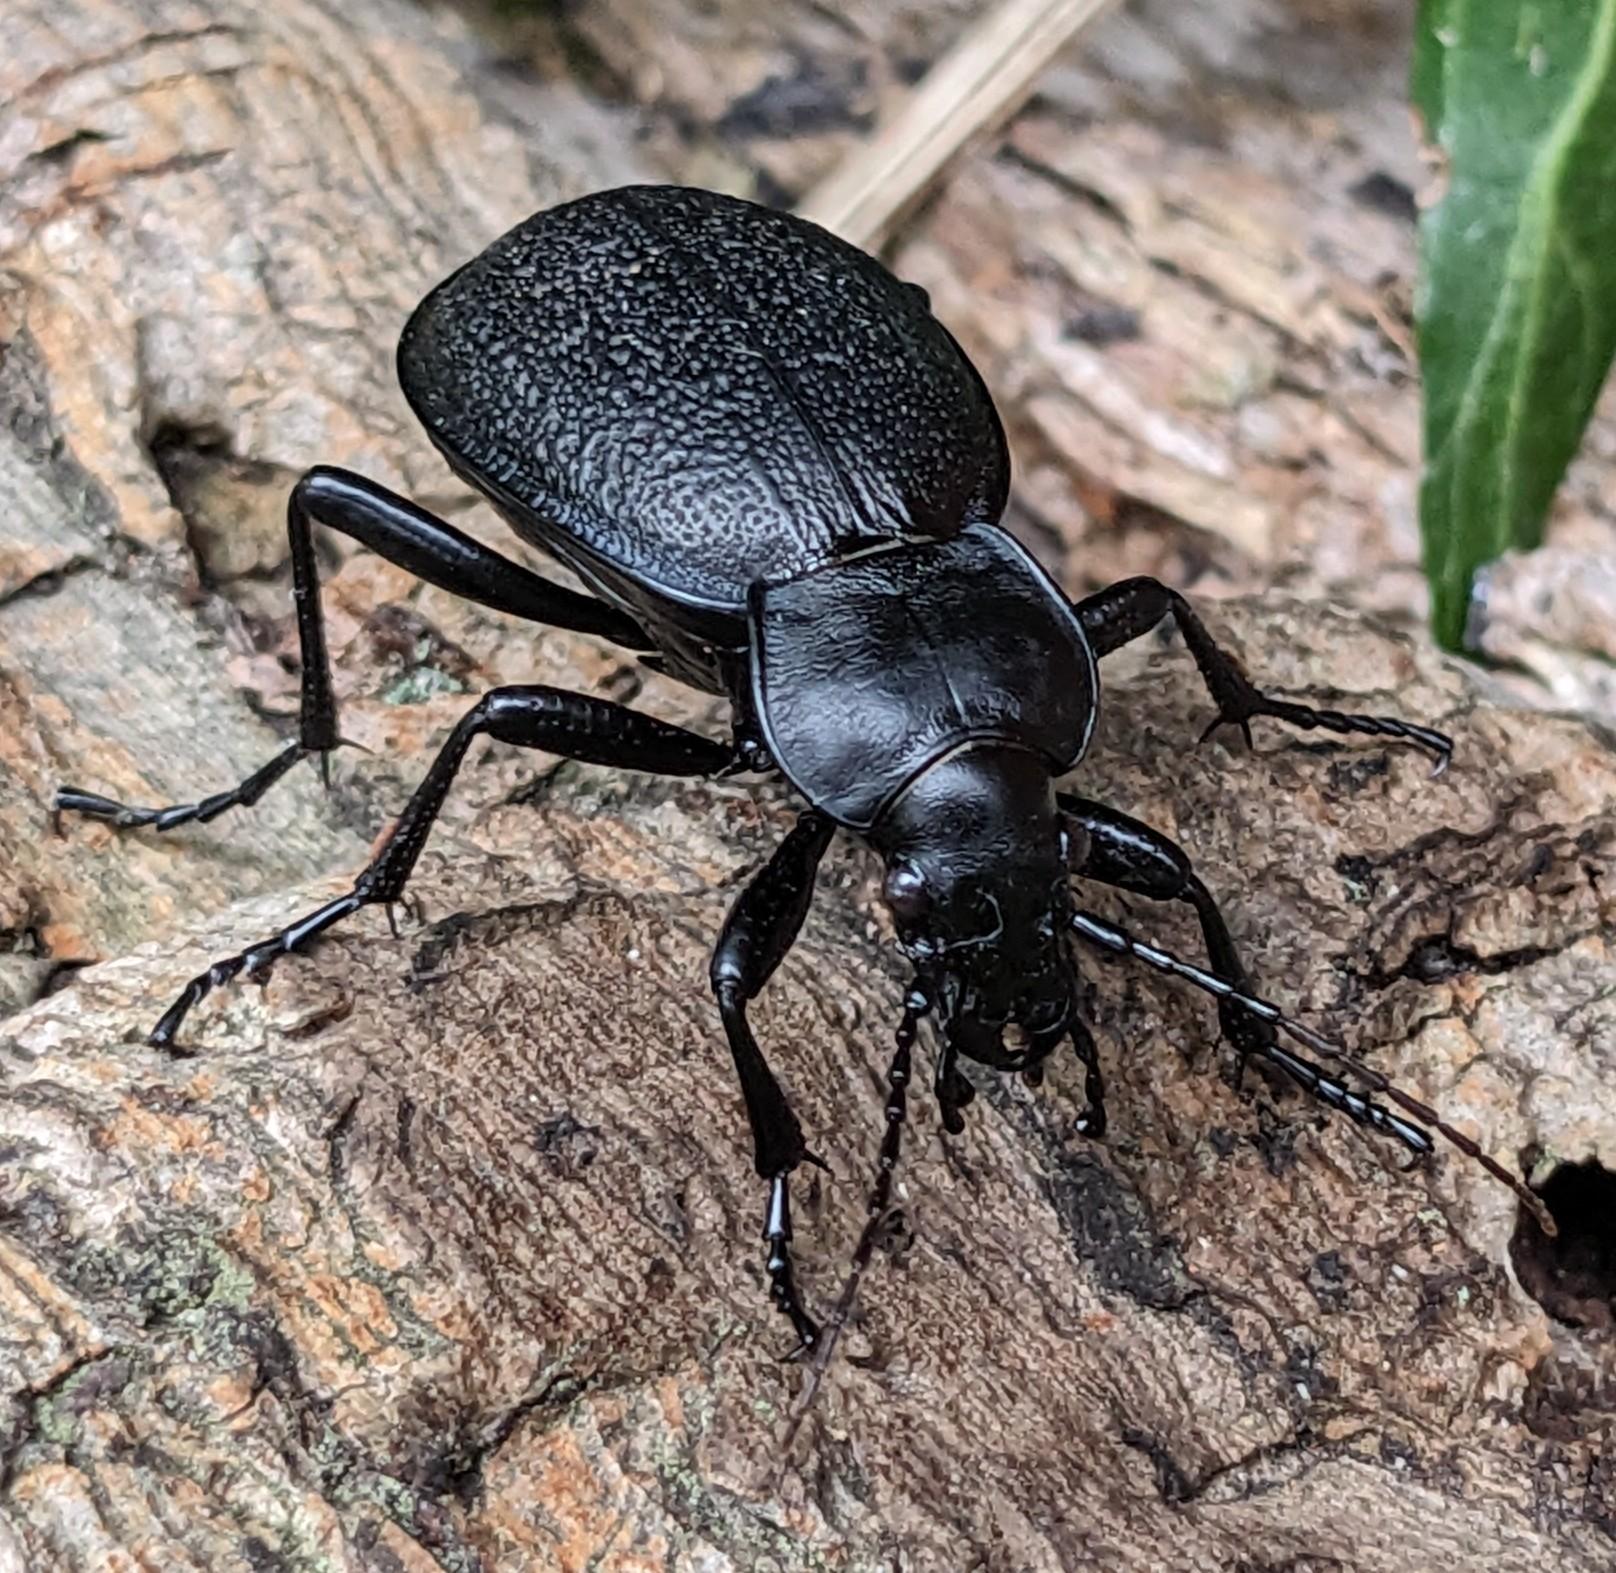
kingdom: Animalia
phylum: Arthropoda
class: Insecta
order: Coleoptera
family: Carabidae
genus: Carabus
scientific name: Carabus coriaceus
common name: Læderløber
